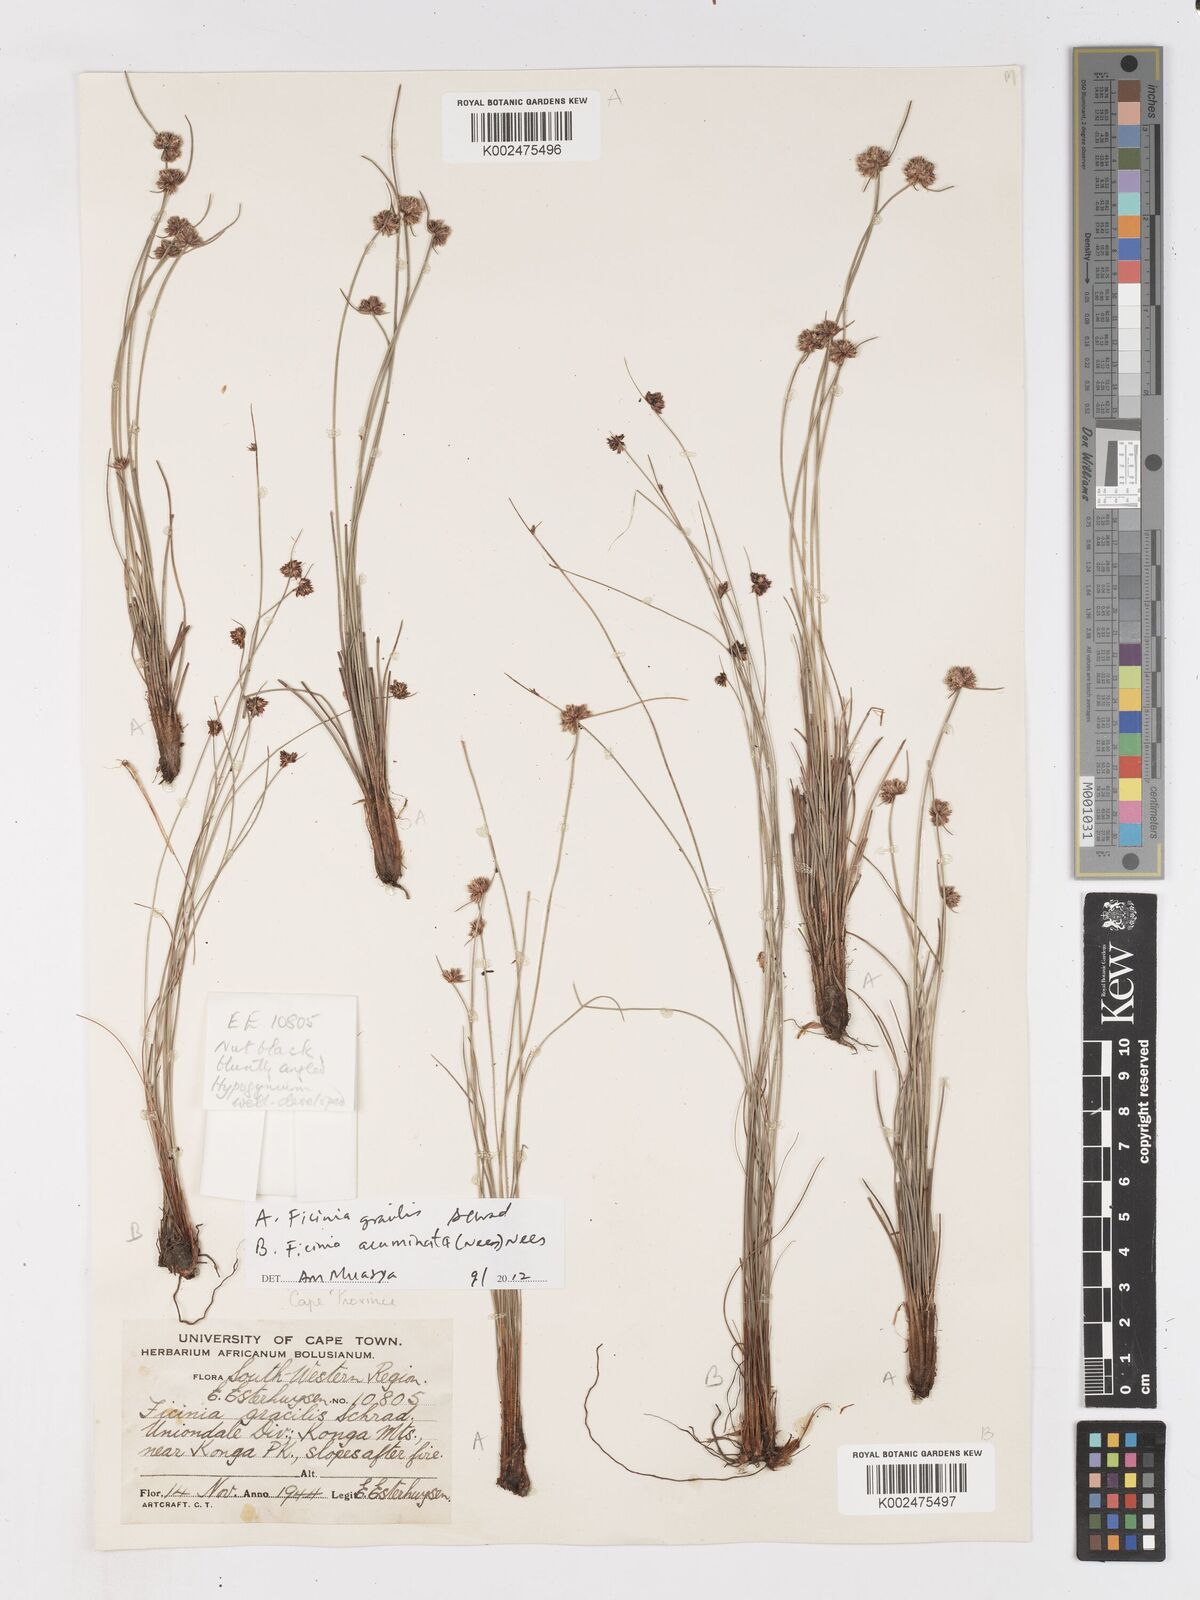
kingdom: Plantae
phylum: Tracheophyta
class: Liliopsida
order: Poales
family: Cyperaceae
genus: Ficinia
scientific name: Ficinia gracilis
